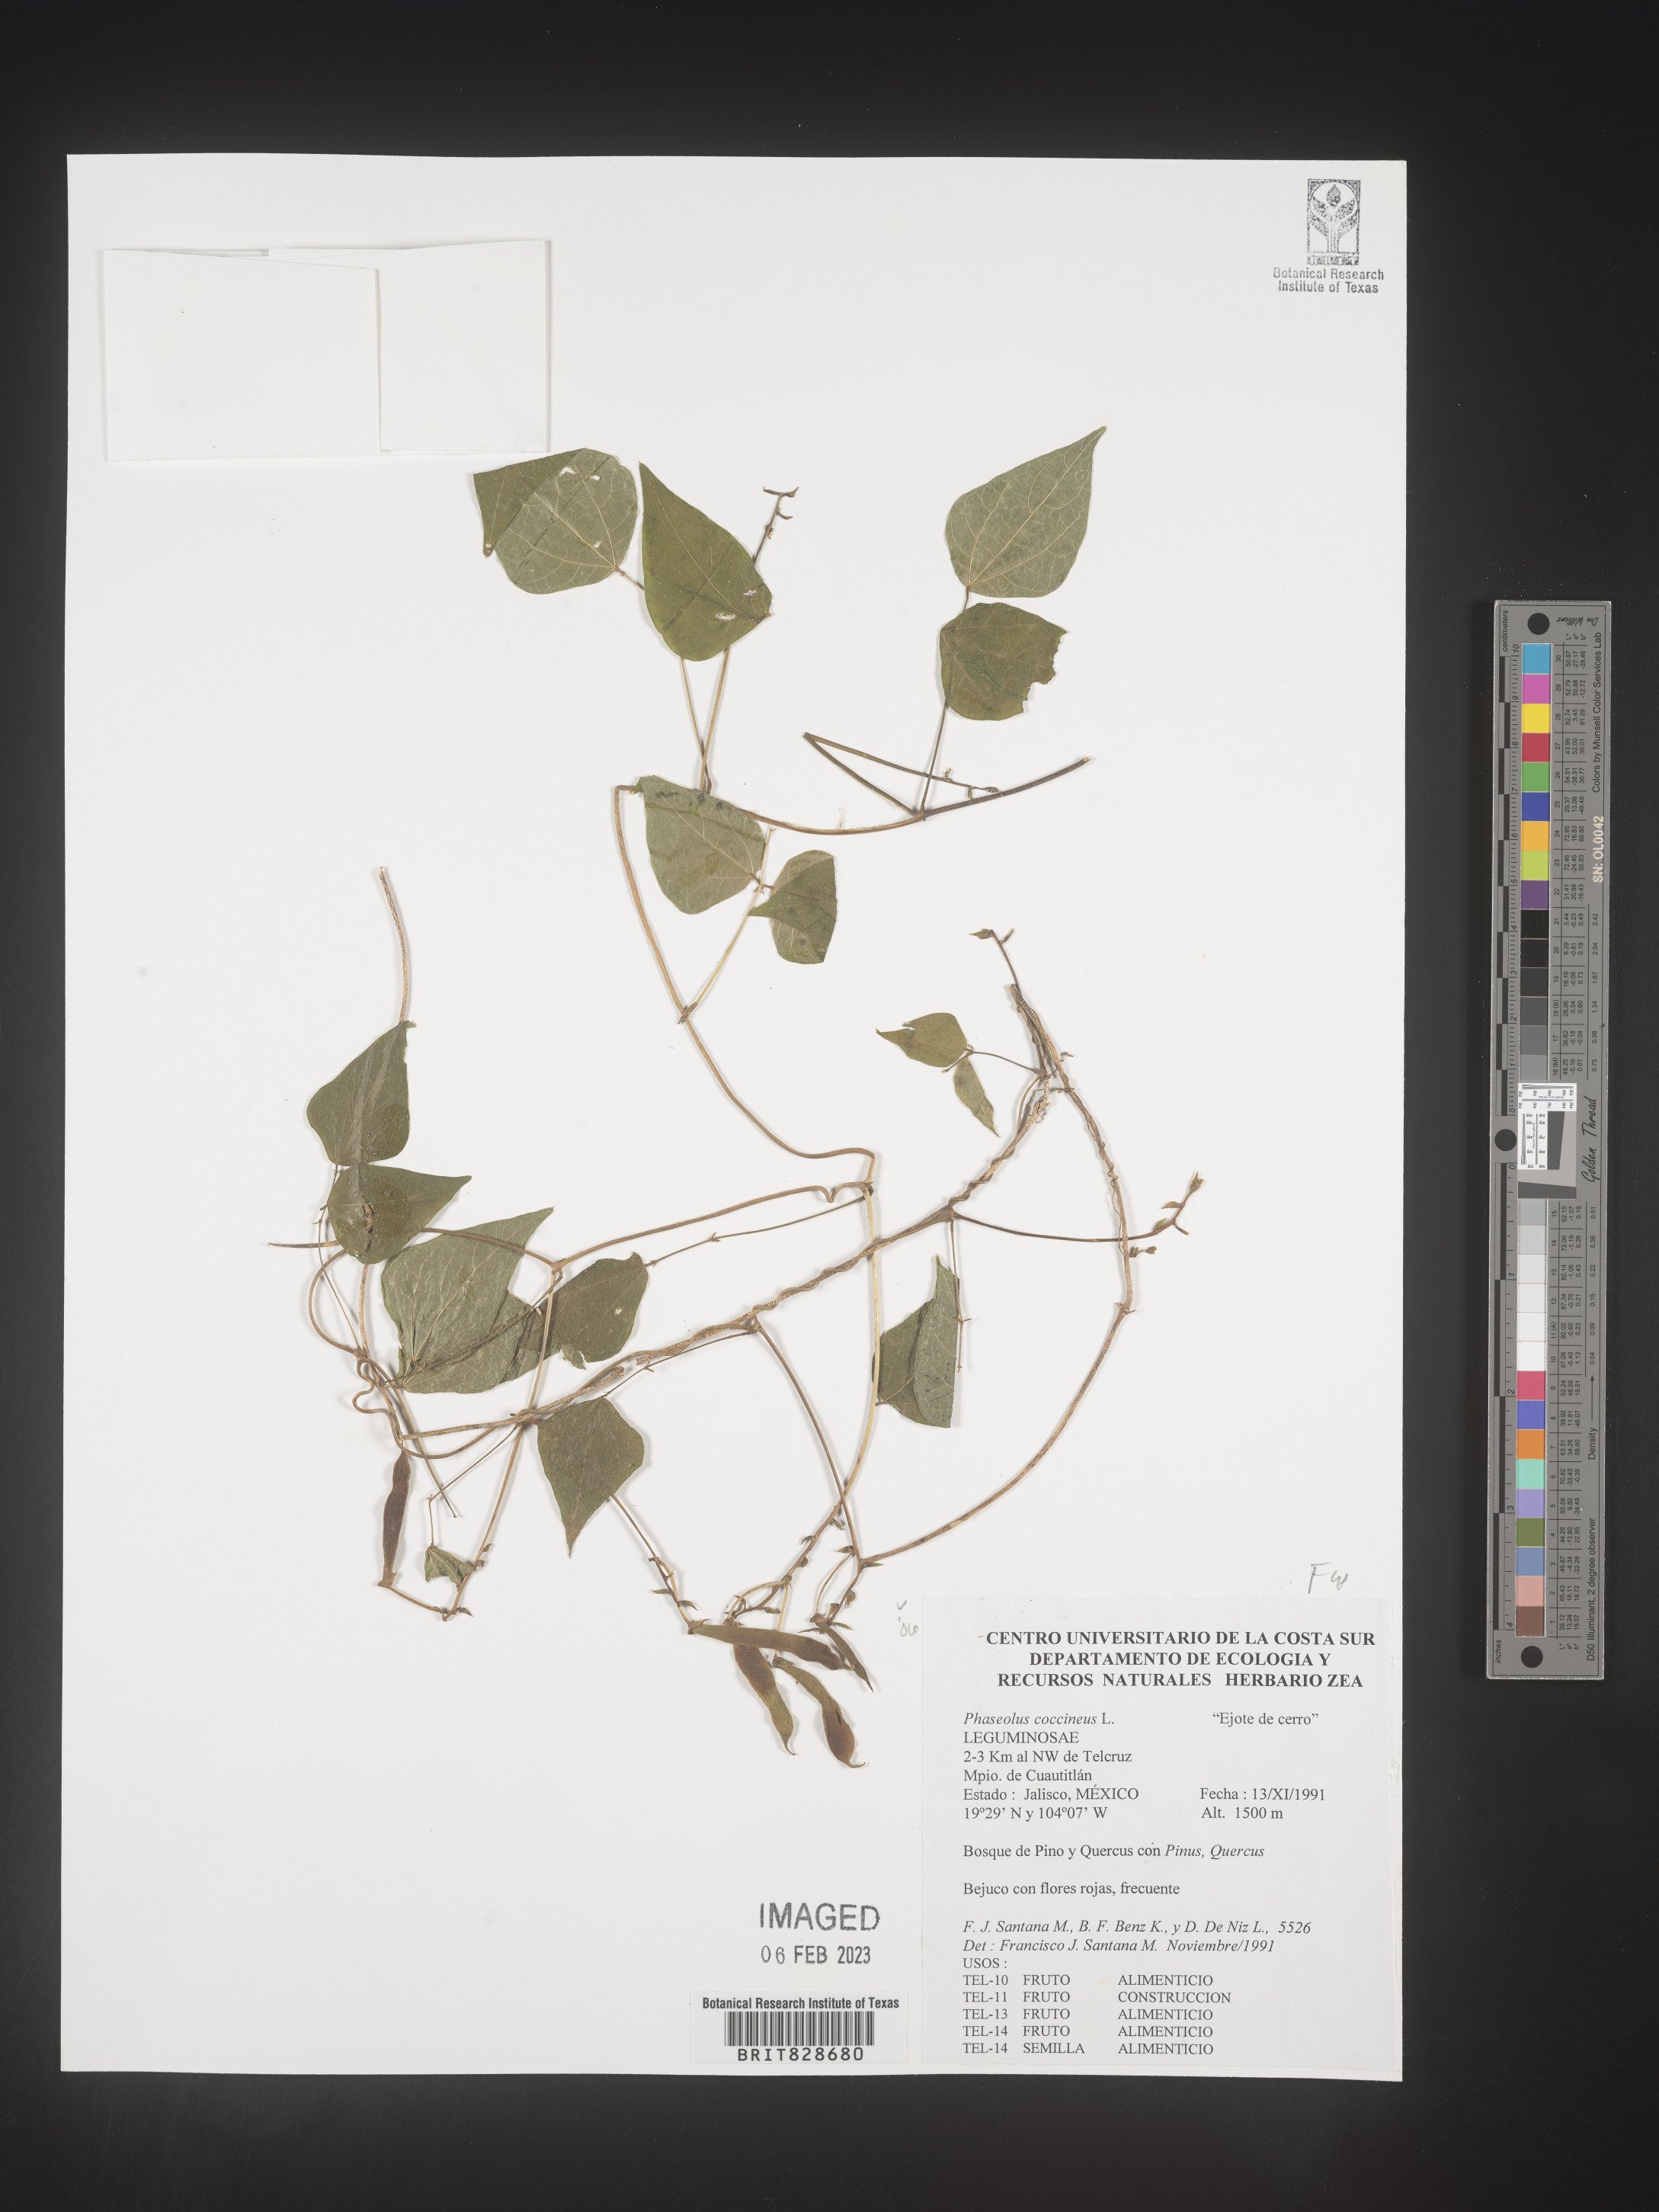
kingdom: Plantae
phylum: Tracheophyta
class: Magnoliopsida
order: Fabales
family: Fabaceae
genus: Phaseolus
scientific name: Phaseolus
